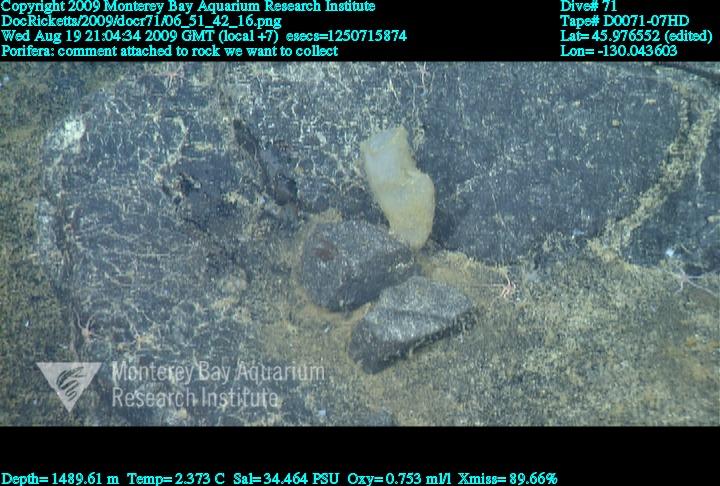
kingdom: Animalia
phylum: Porifera
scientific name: Porifera
